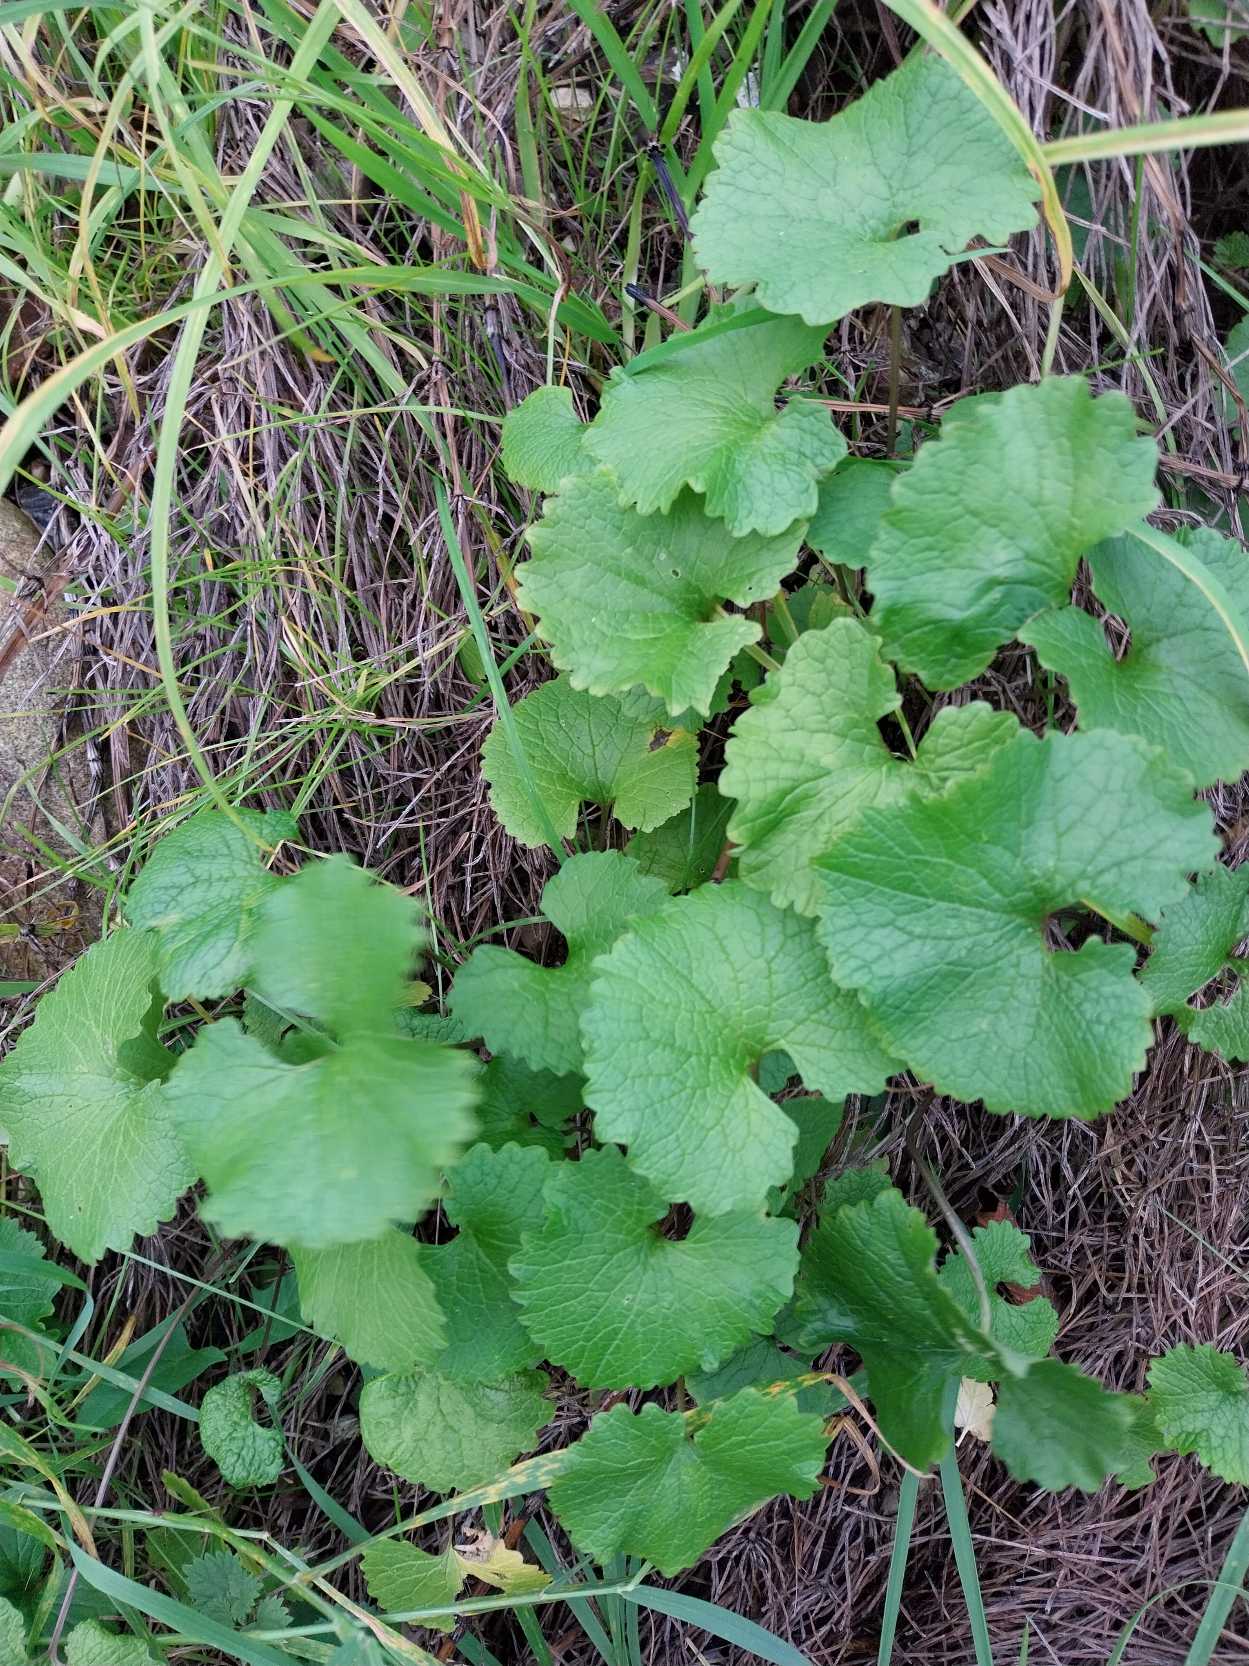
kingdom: Plantae
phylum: Tracheophyta
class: Magnoliopsida
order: Brassicales
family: Brassicaceae
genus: Alliaria
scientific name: Alliaria petiolata
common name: Løgkarse
